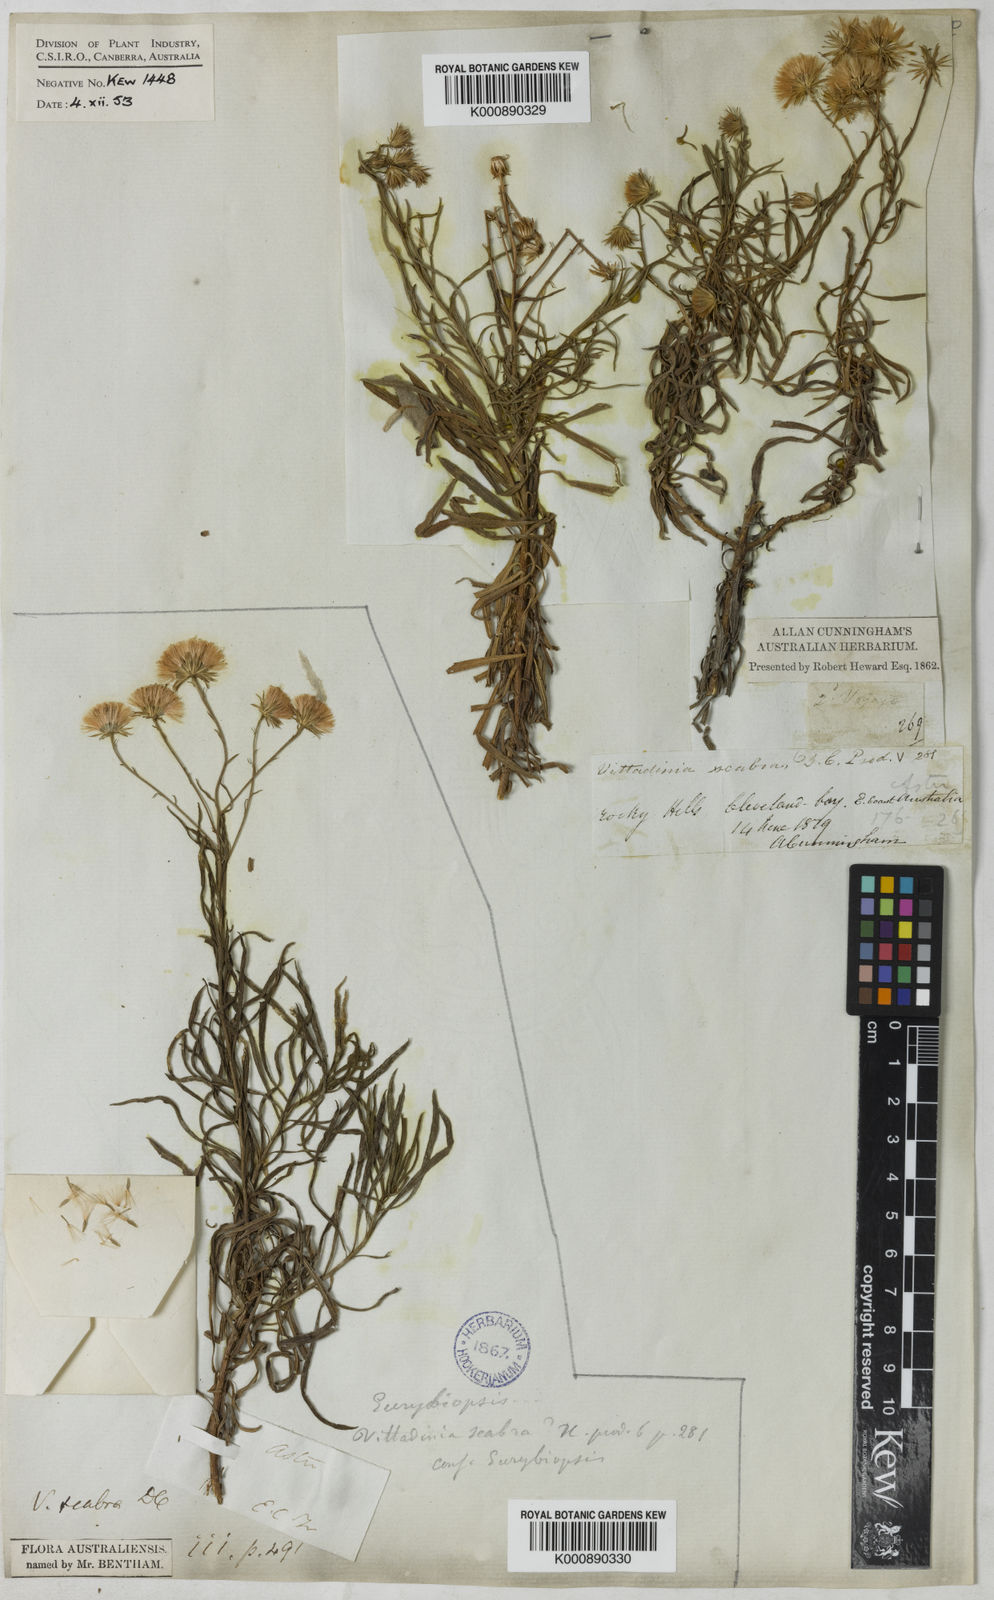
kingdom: Plantae
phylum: Tracheophyta
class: Magnoliopsida
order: Asterales
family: Asteraceae
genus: Peripleura
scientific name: Peripleura scabra
